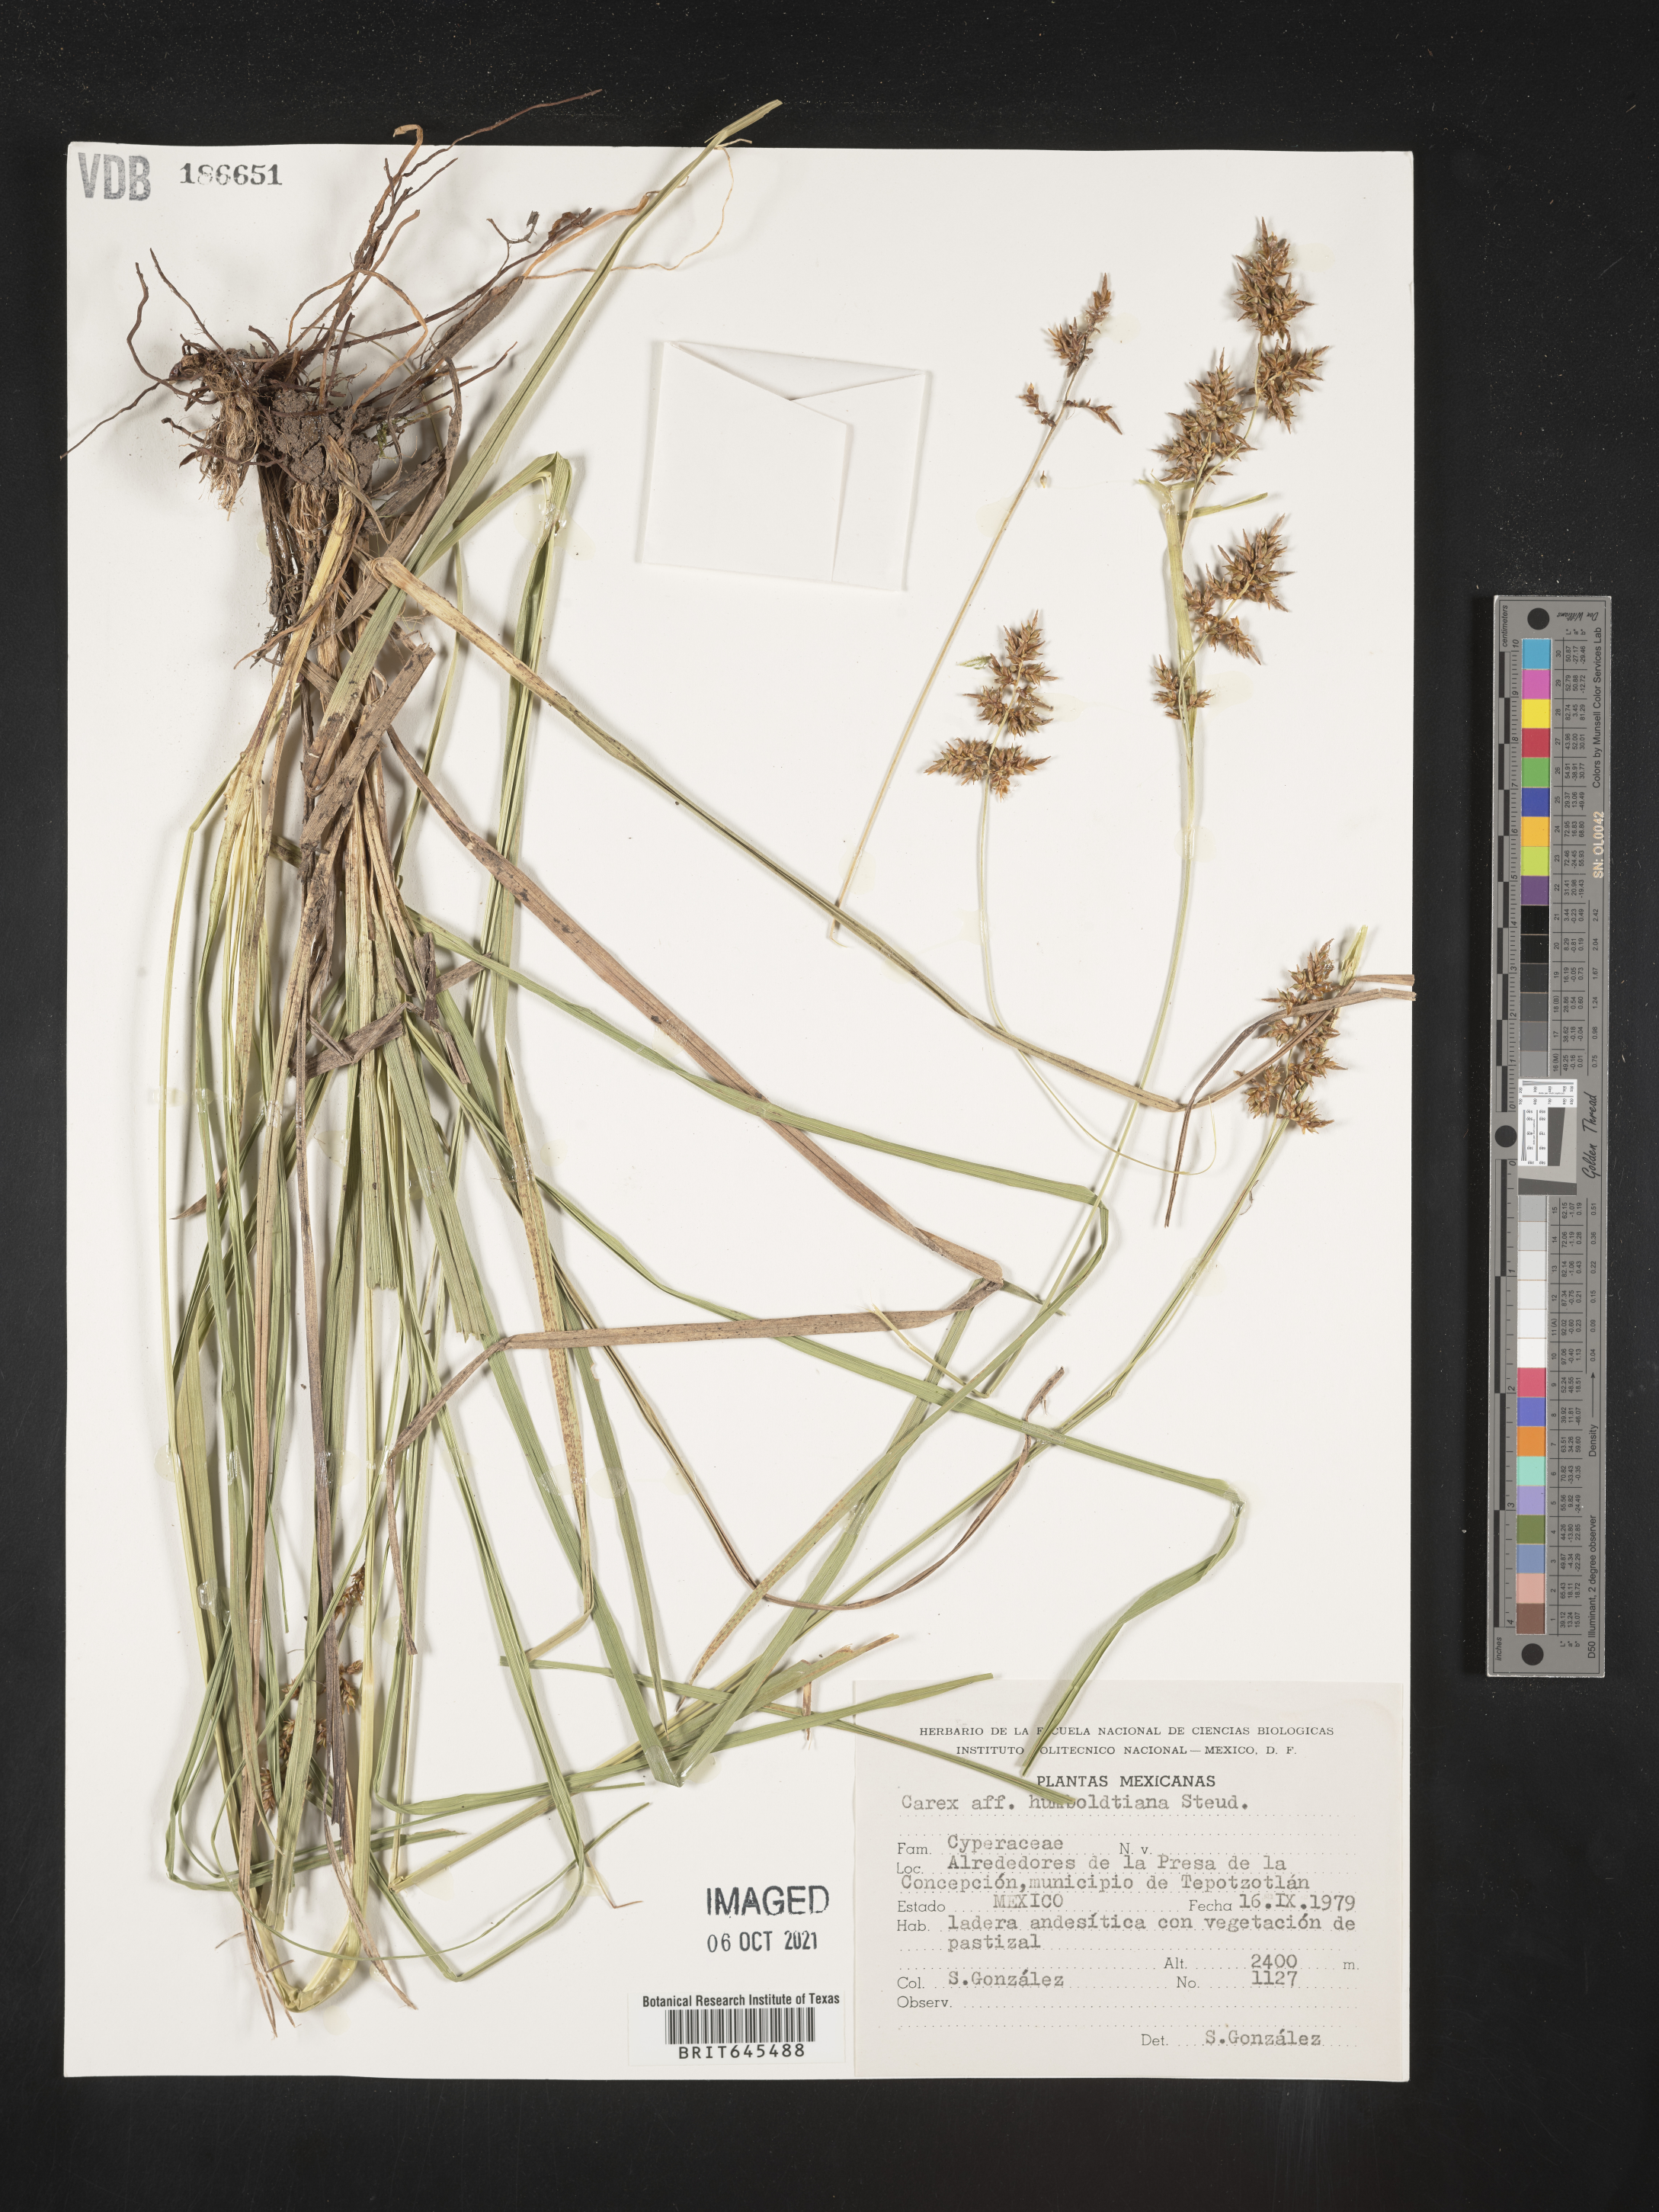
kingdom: Plantae
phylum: Tracheophyta
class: Liliopsida
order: Poales
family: Cyperaceae
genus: Carex
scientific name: Carex
